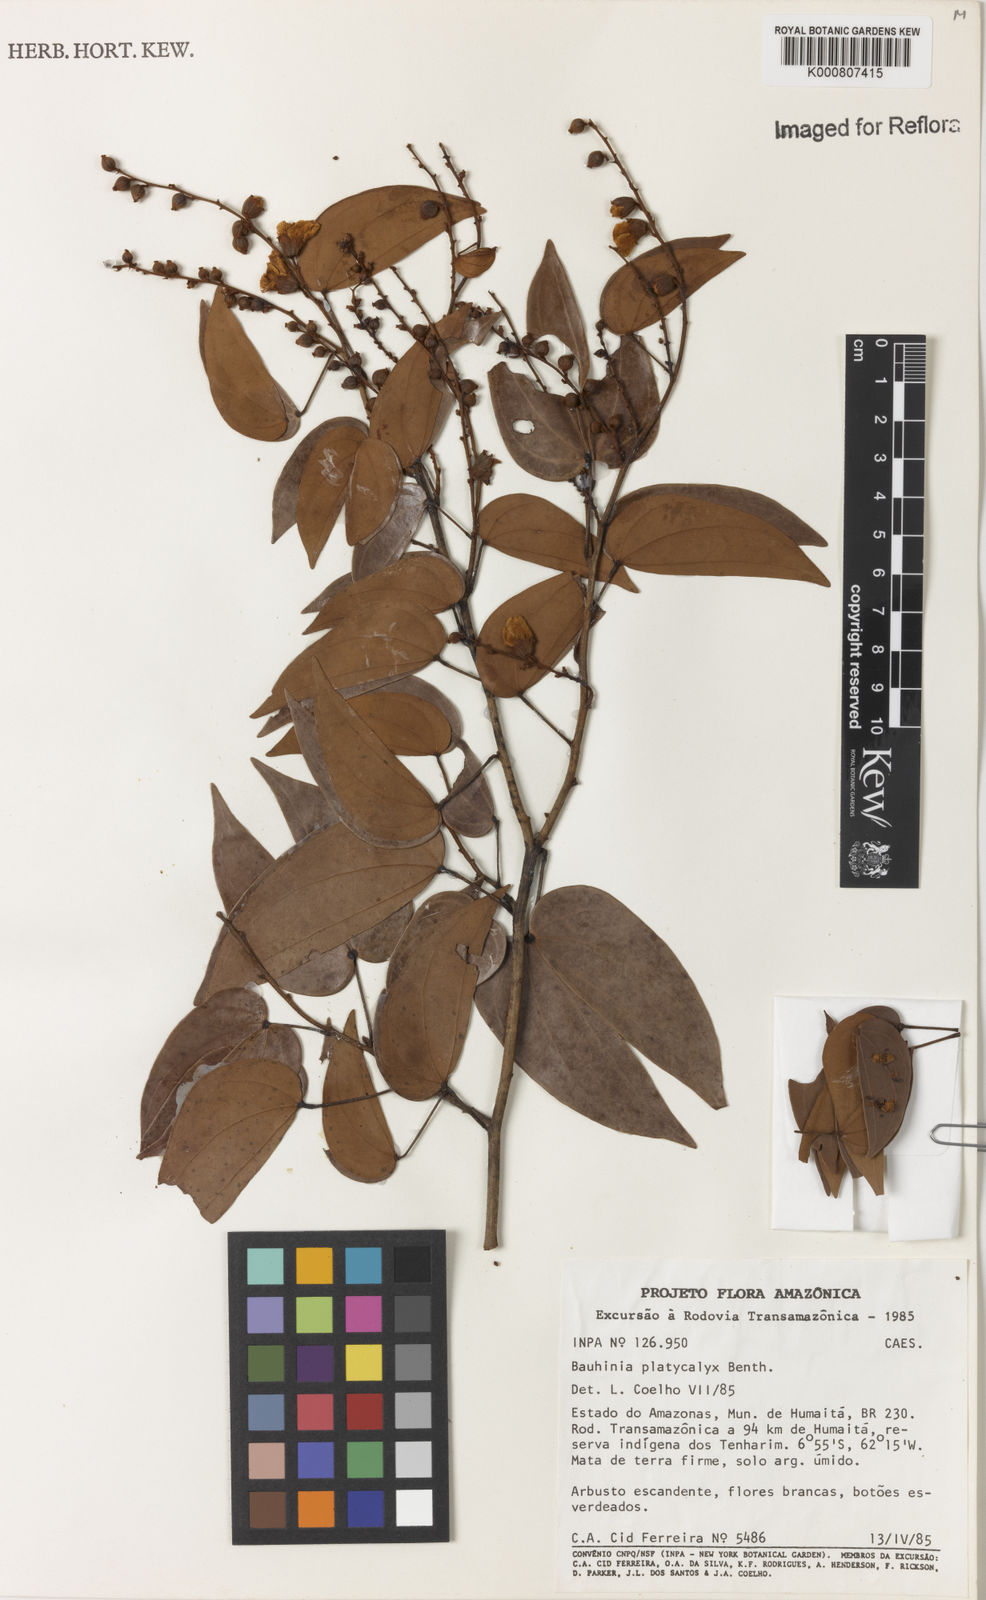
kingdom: Plantae
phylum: Tracheophyta
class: Magnoliopsida
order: Fabales
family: Fabaceae
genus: Schnella
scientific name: Schnella platycalyx
